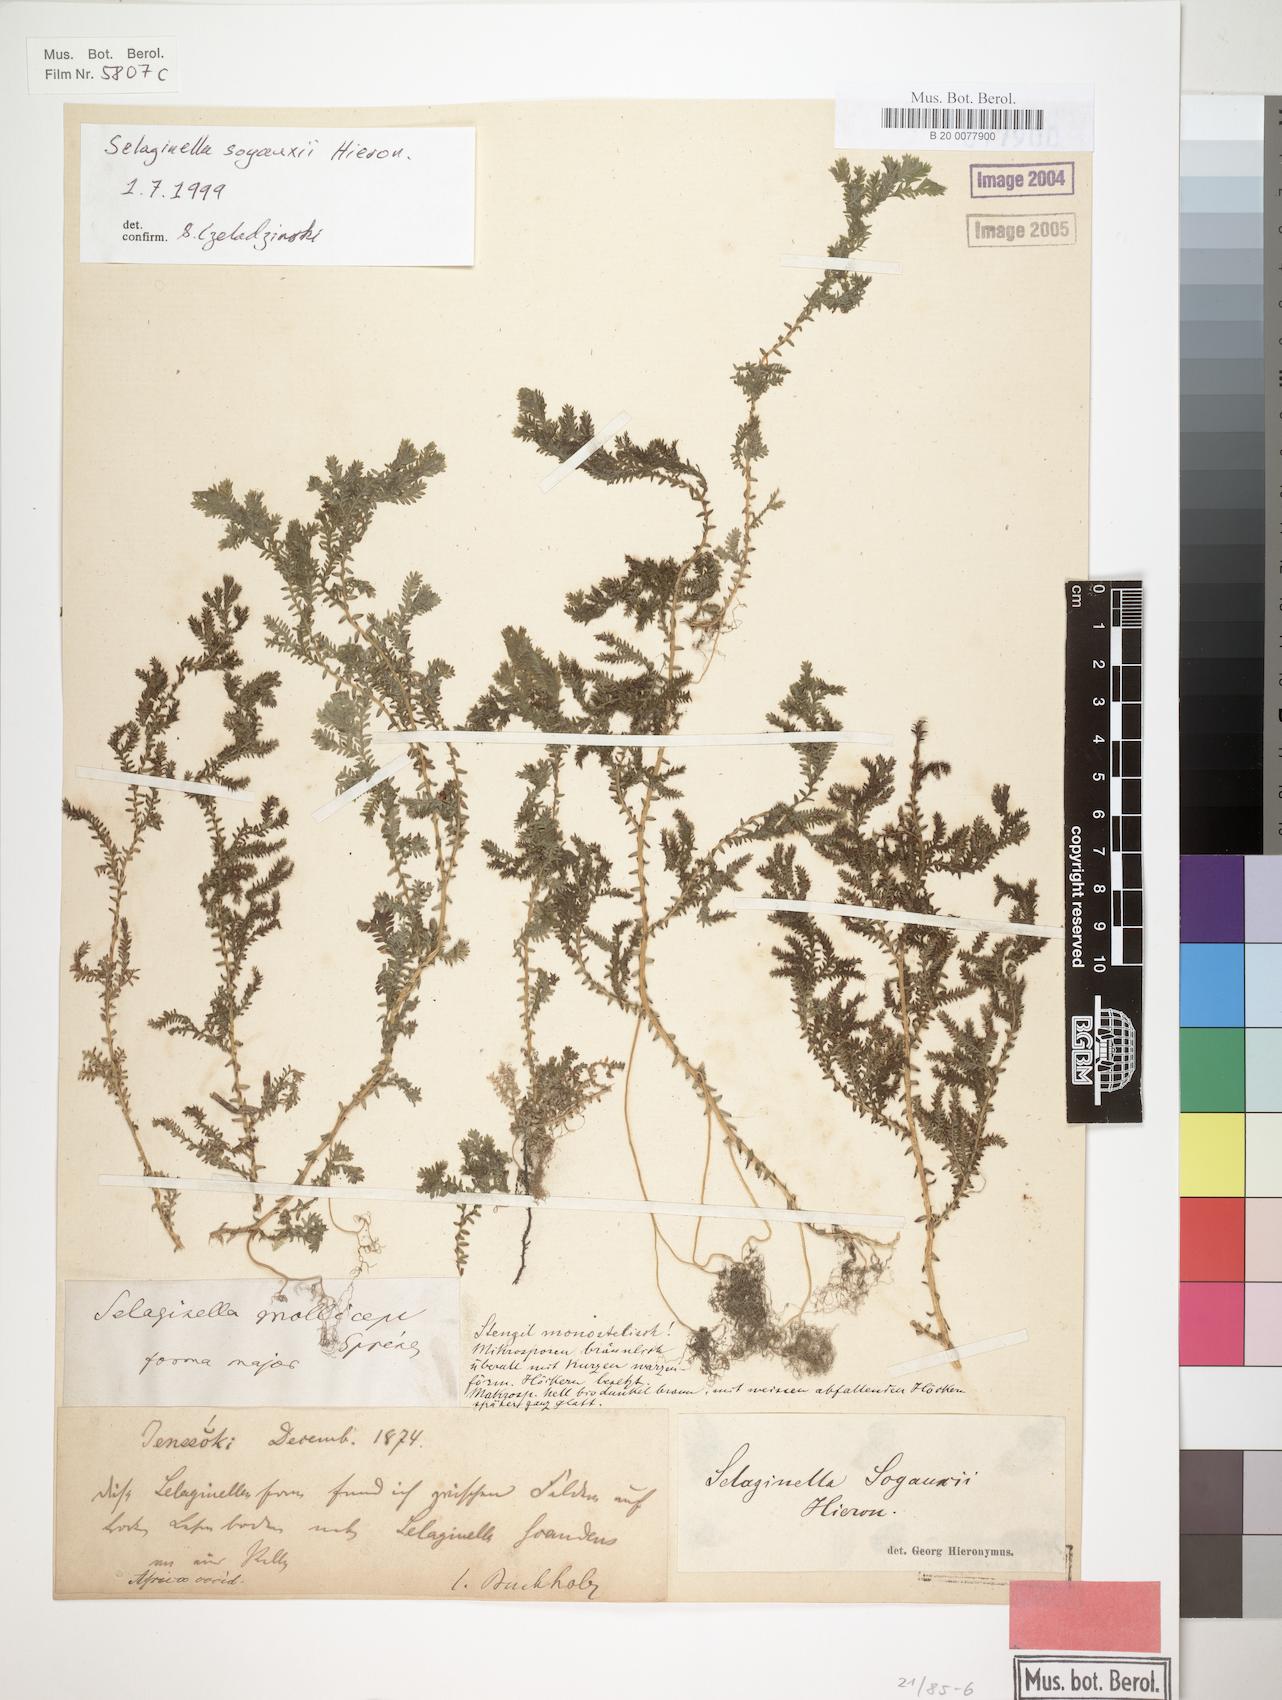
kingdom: Plantae
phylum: Tracheophyta
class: Lycopodiopsida
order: Selaginellales
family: Selaginellaceae
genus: Selaginella
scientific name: Selaginella
